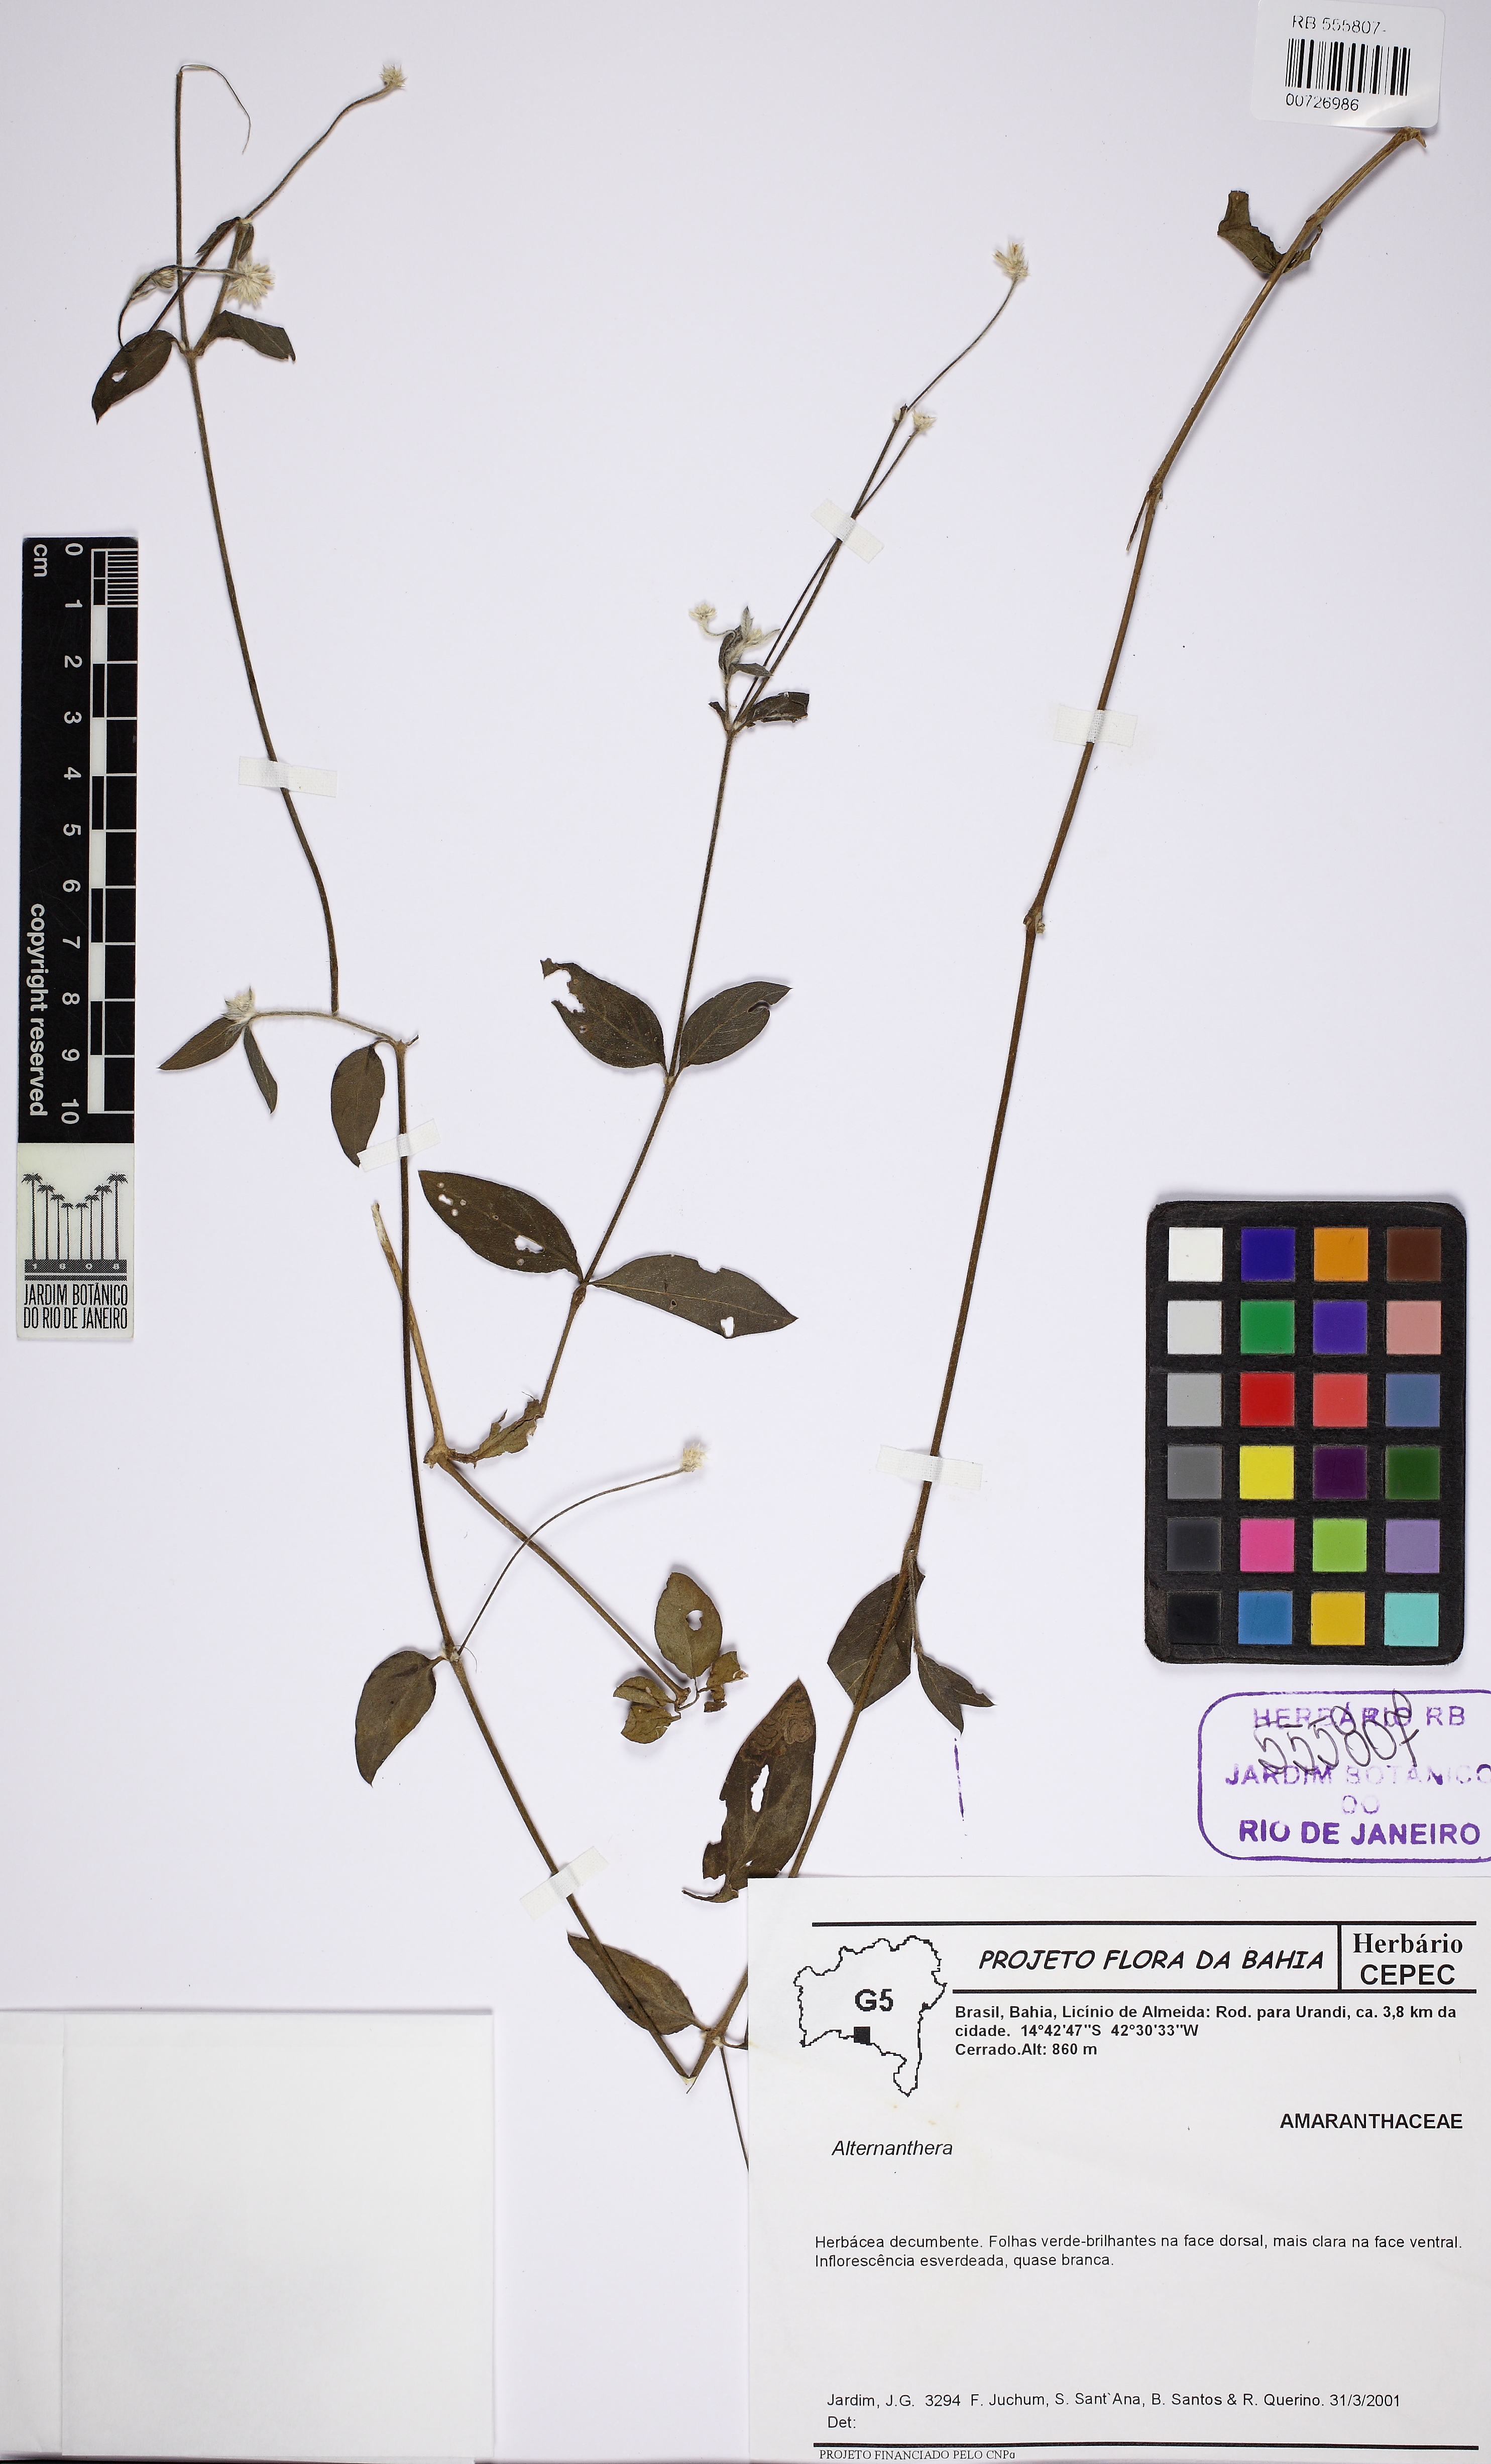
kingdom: Plantae
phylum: Tracheophyta
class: Magnoliopsida
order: Caryophyllales
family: Amaranthaceae
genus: Alternanthera
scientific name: Alternanthera
